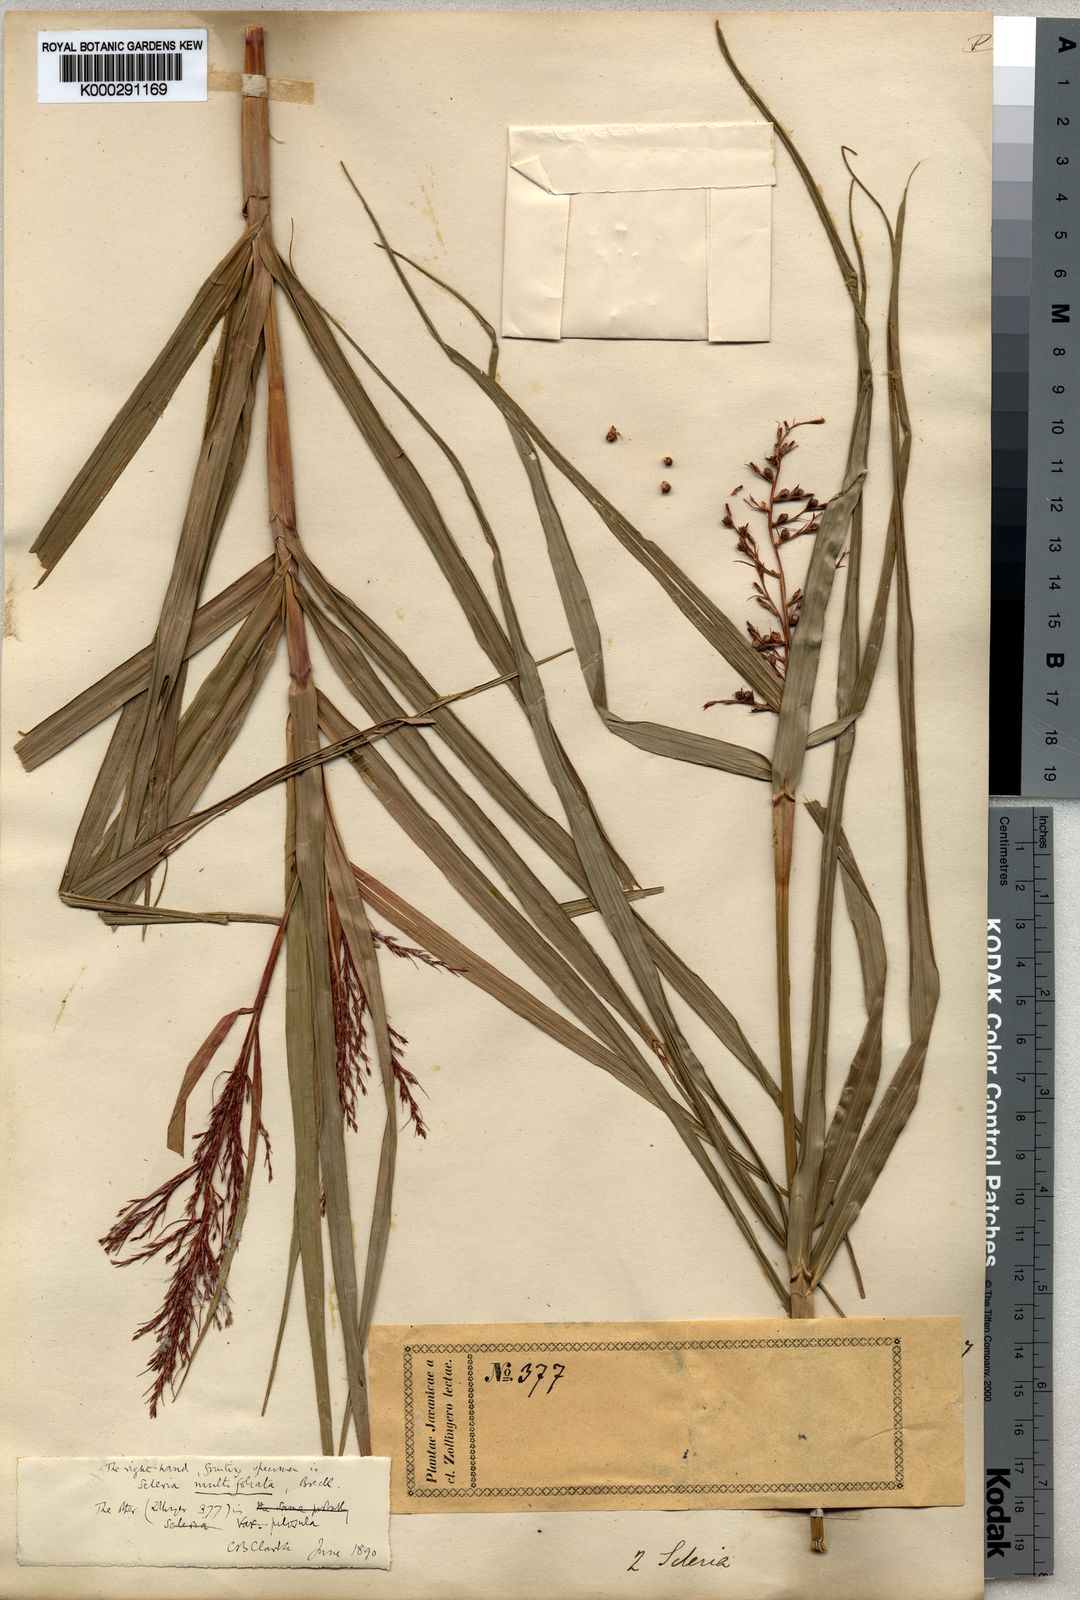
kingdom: Plantae
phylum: Tracheophyta
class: Liliopsida
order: Poales
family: Cyperaceae
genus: Scleria
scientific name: Scleria purpurascens
